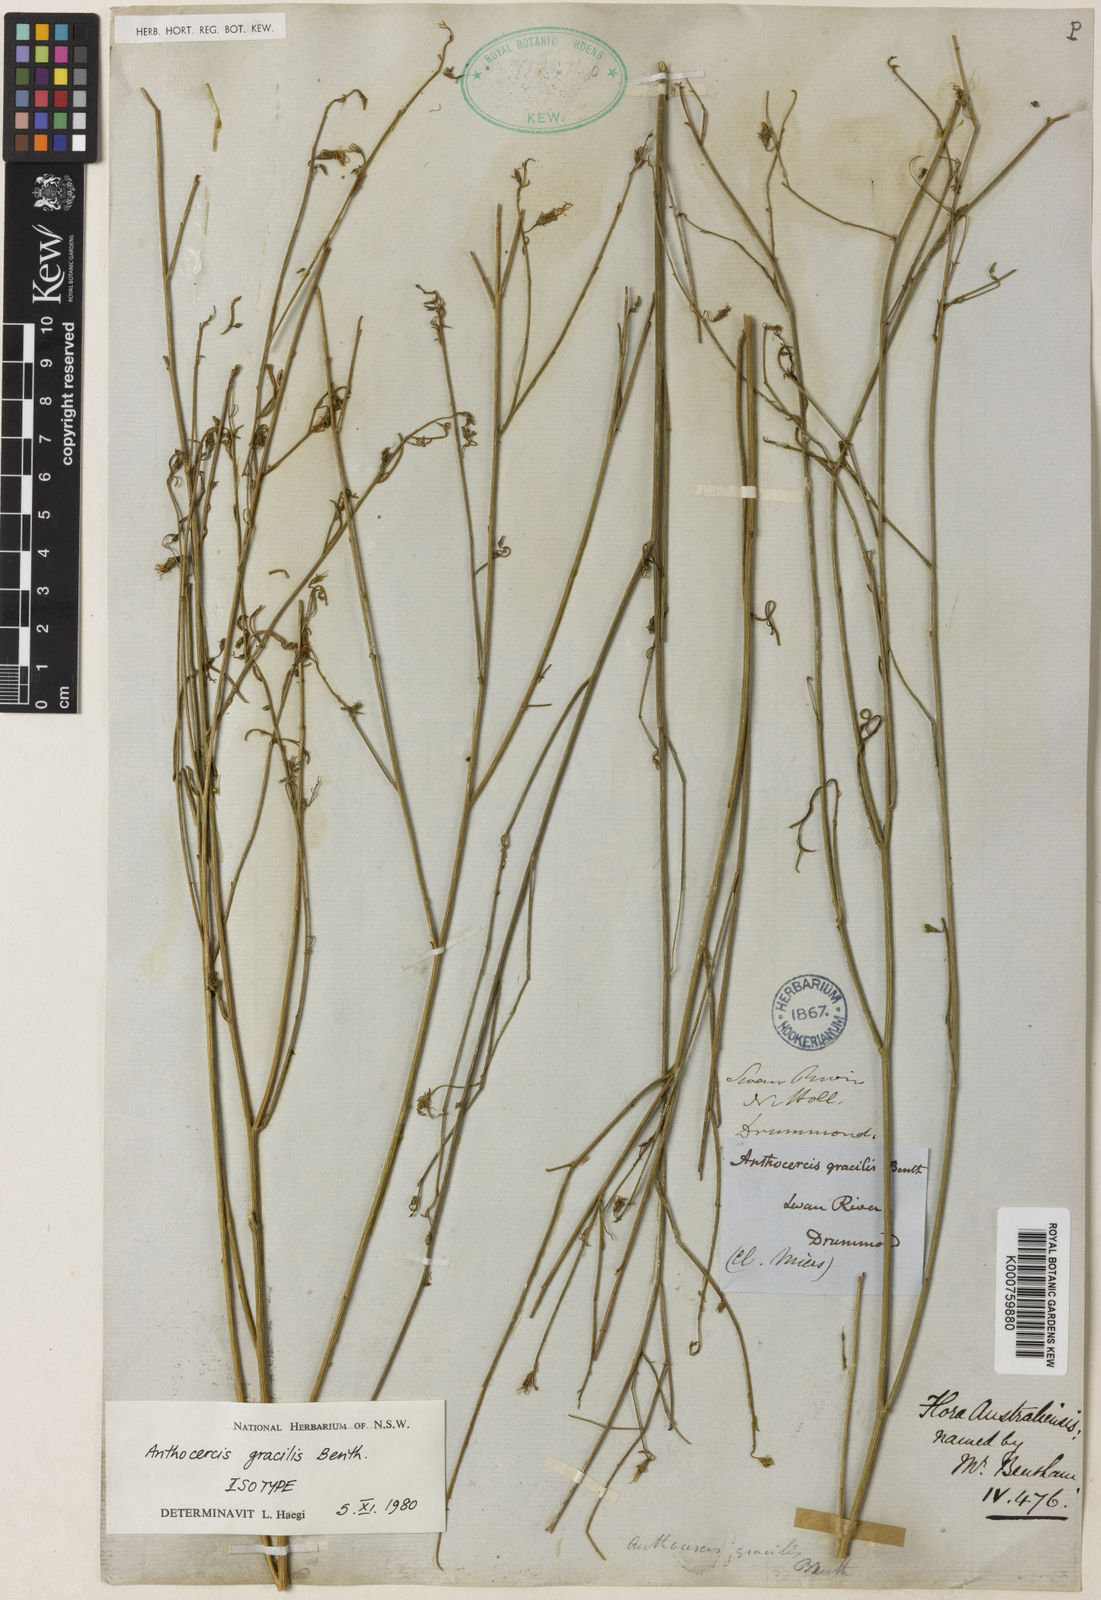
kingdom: Plantae
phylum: Tracheophyta
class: Magnoliopsida
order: Solanales
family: Solanaceae
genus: Anthocercis
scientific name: Anthocercis gracilis
